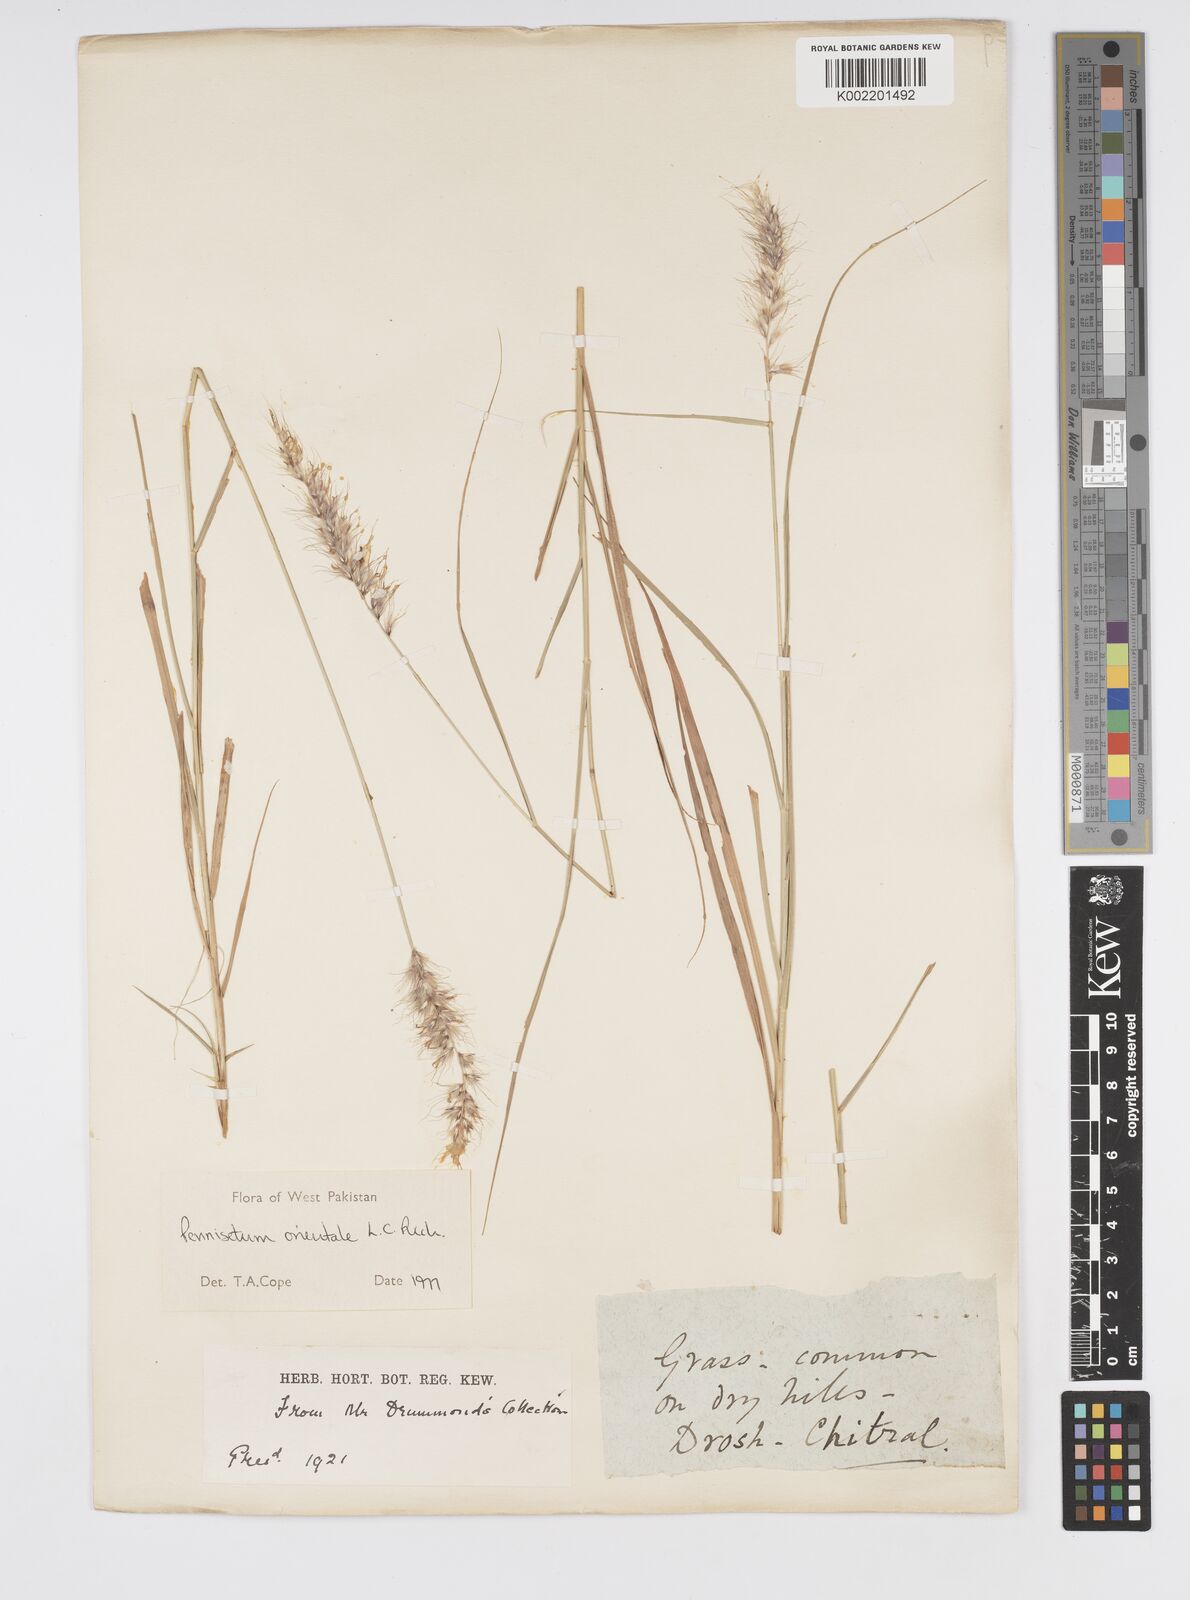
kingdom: Plantae
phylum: Tracheophyta
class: Liliopsida
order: Poales
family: Poaceae
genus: Cenchrus
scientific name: Cenchrus orientalis
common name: Oriental fountain grass
